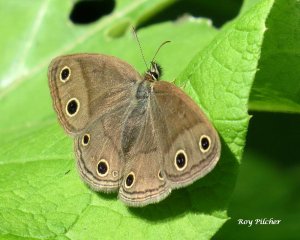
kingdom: Animalia
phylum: Arthropoda
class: Insecta
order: Lepidoptera
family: Nymphalidae
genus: Euptychia
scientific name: Euptychia cymela
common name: Little Wood Satyr
